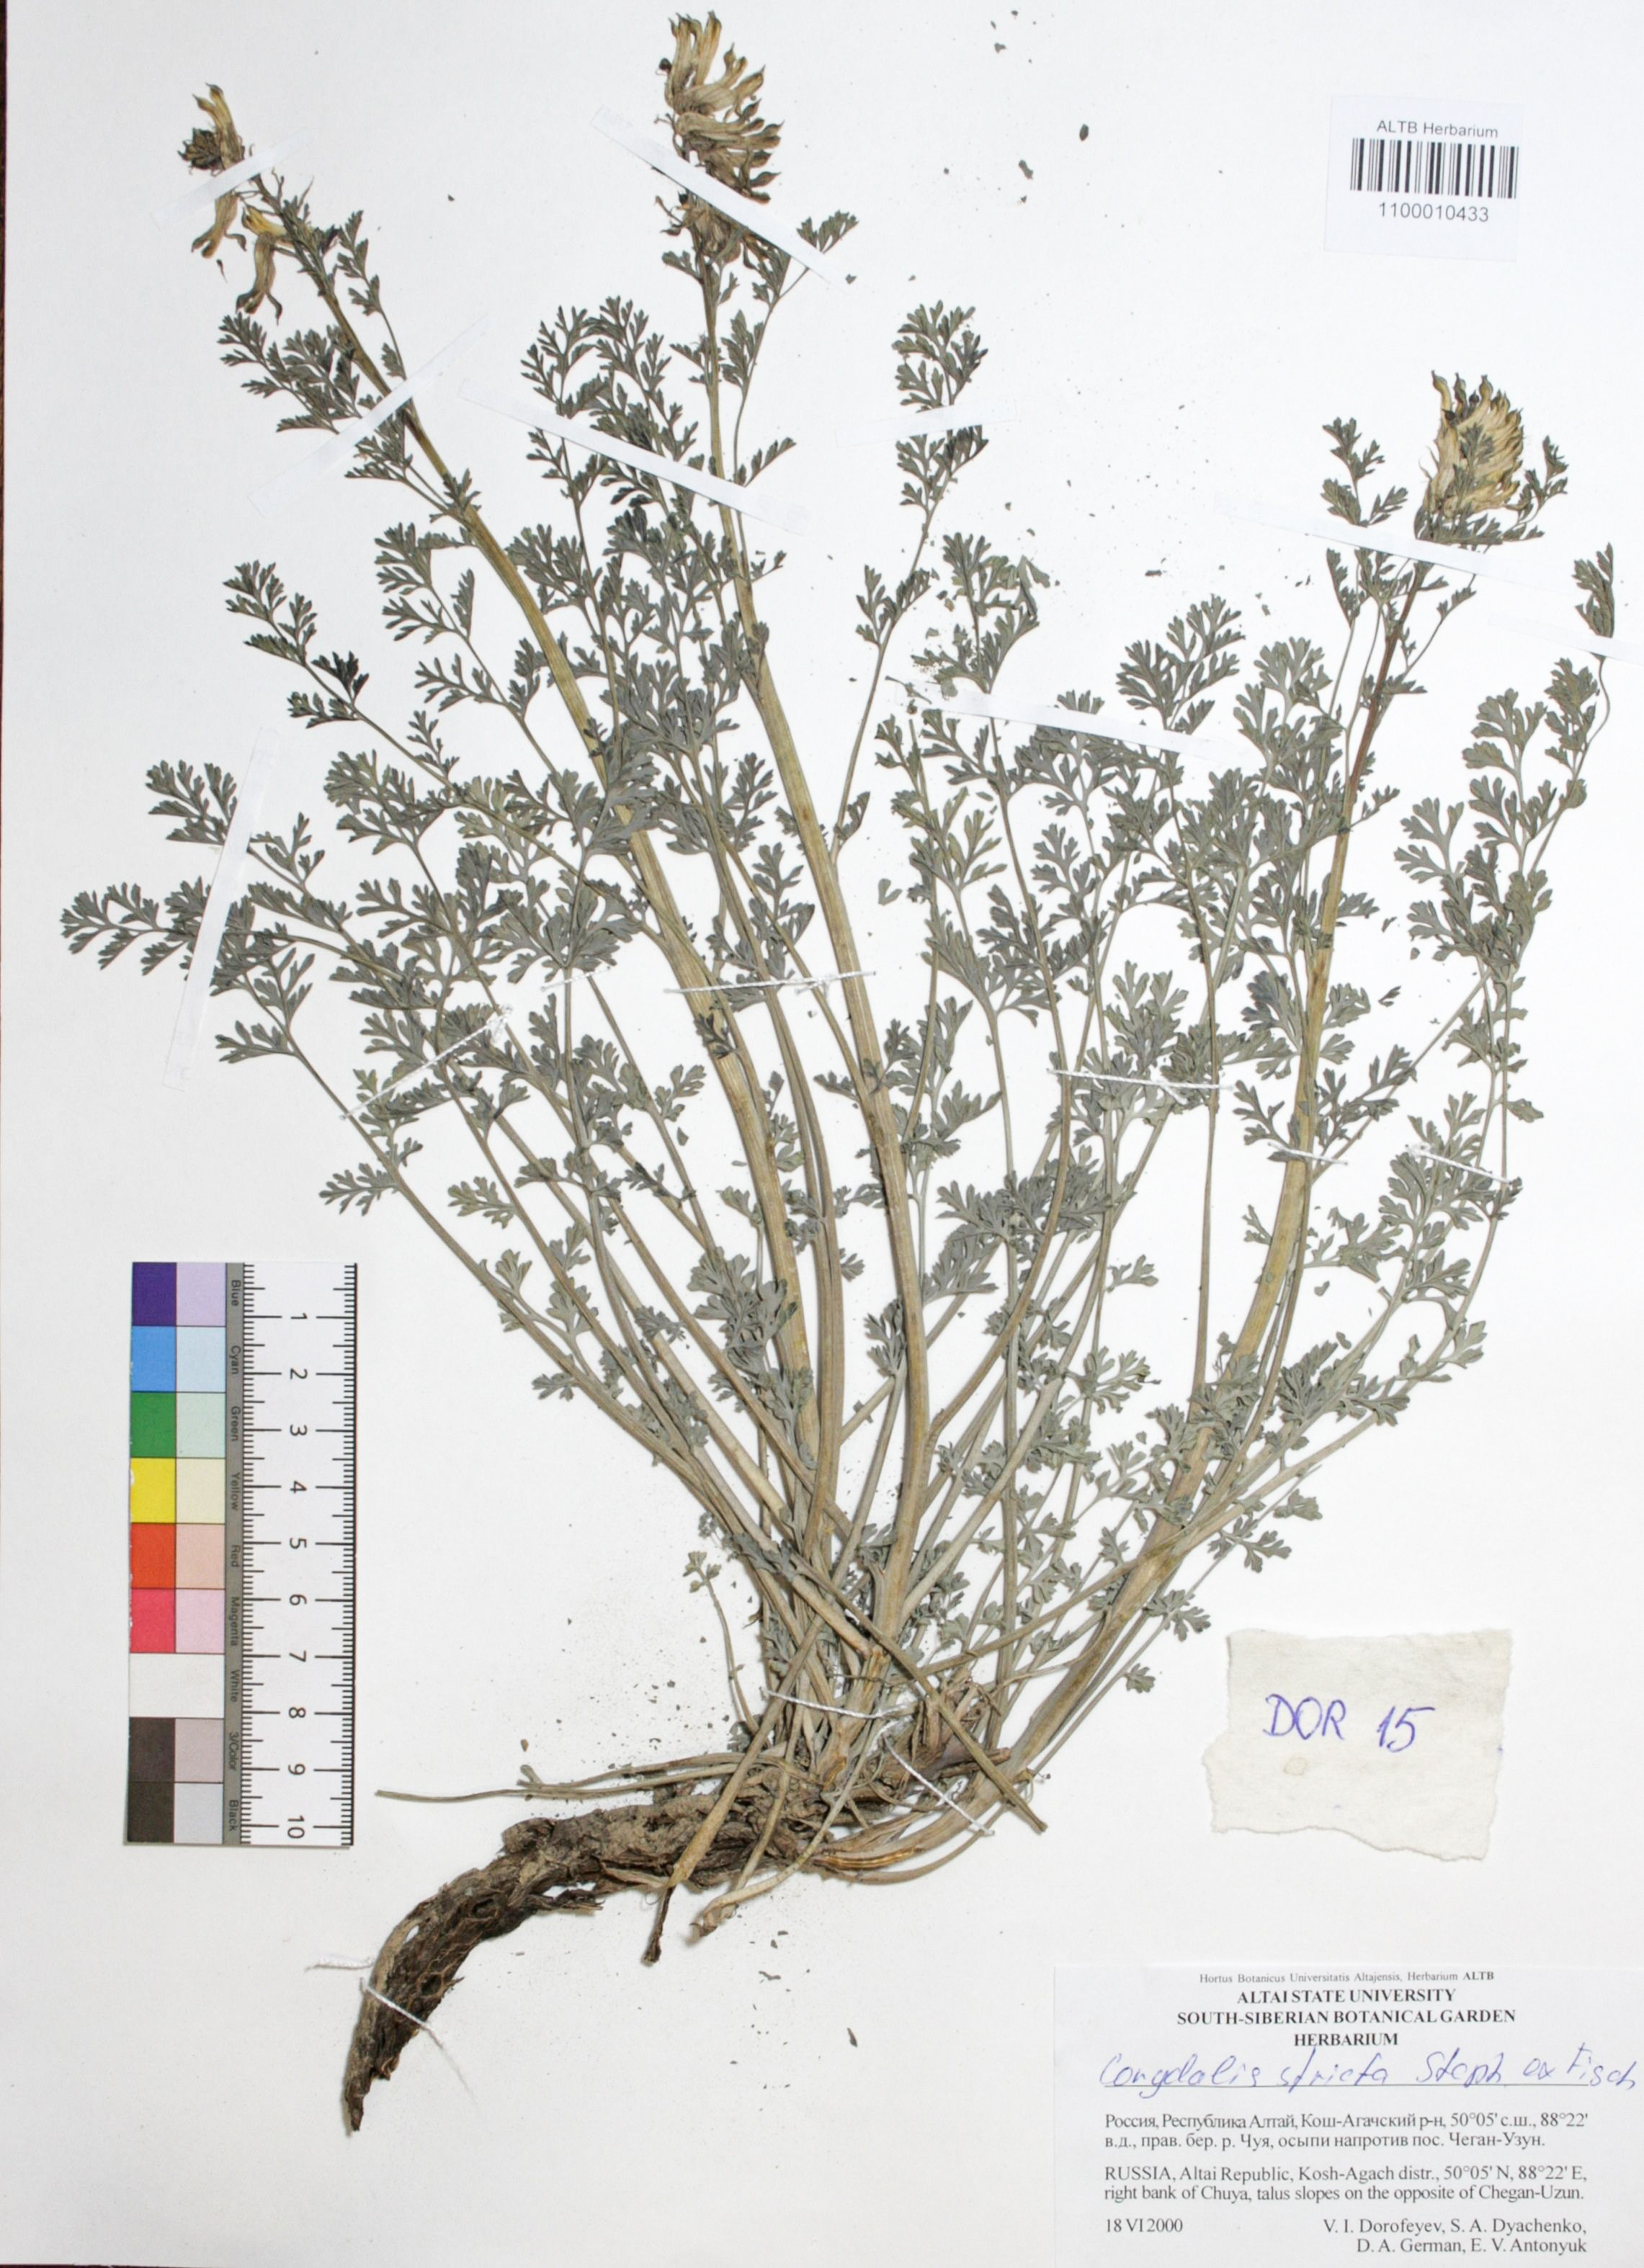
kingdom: Plantae
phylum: Tracheophyta
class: Magnoliopsida
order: Ranunculales
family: Papaveraceae
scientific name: Papaveraceae
